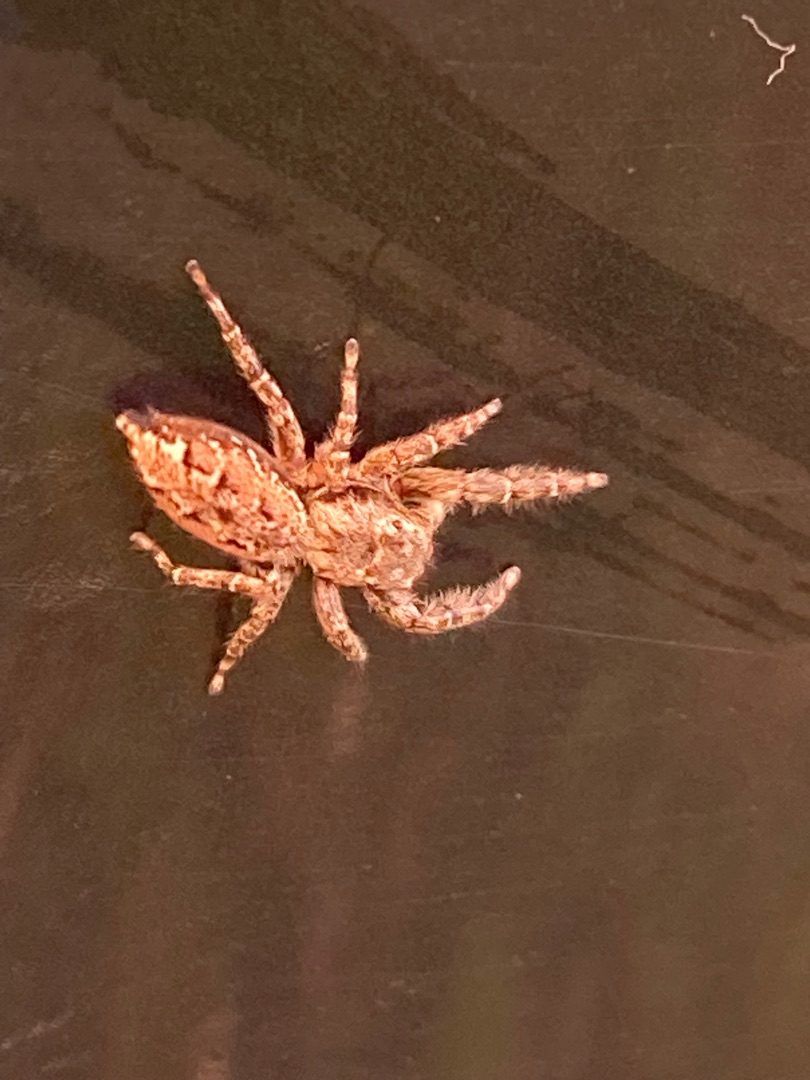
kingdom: Animalia
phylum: Arthropoda
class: Arachnida
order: Araneae
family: Salticidae
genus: Marpissa
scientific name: Marpissa muscosa
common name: Stor springedderkop
